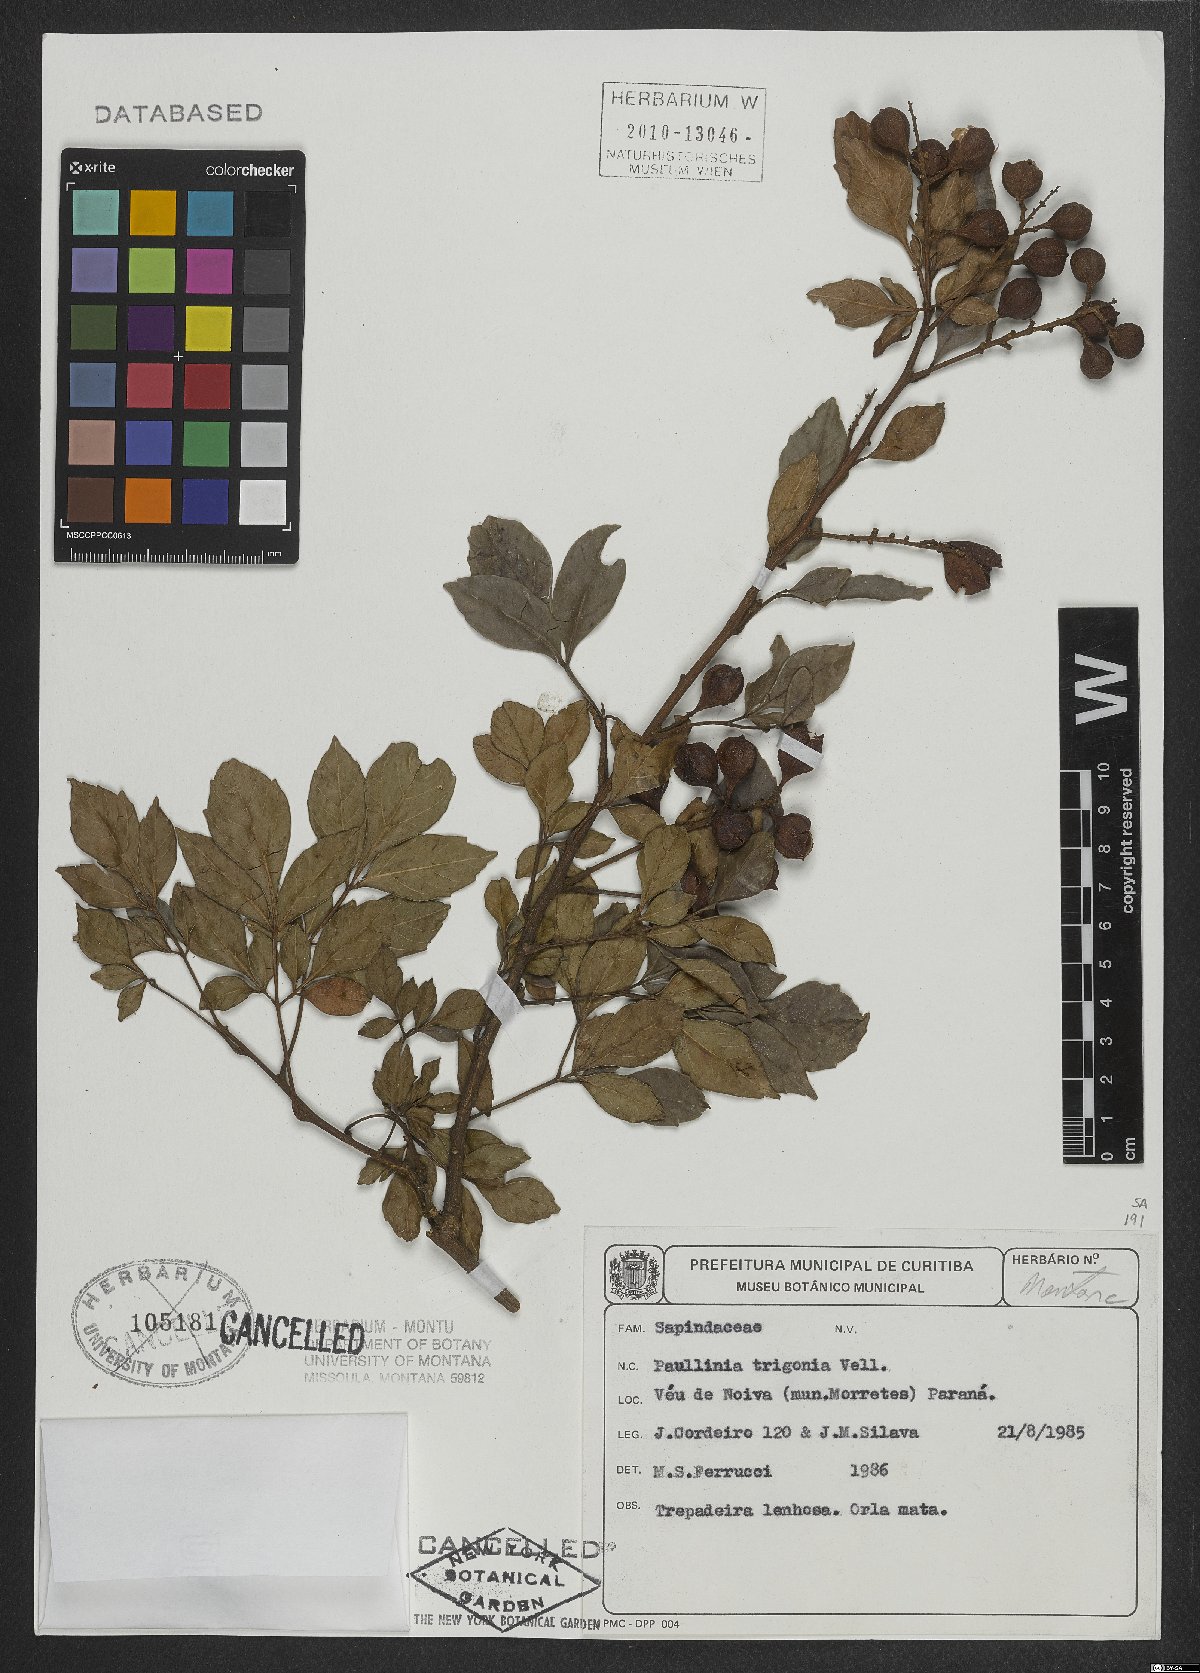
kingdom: Plantae
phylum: Tracheophyta
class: Magnoliopsida
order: Sapindales
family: Sapindaceae
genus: Paullinia
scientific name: Paullinia trigonia
